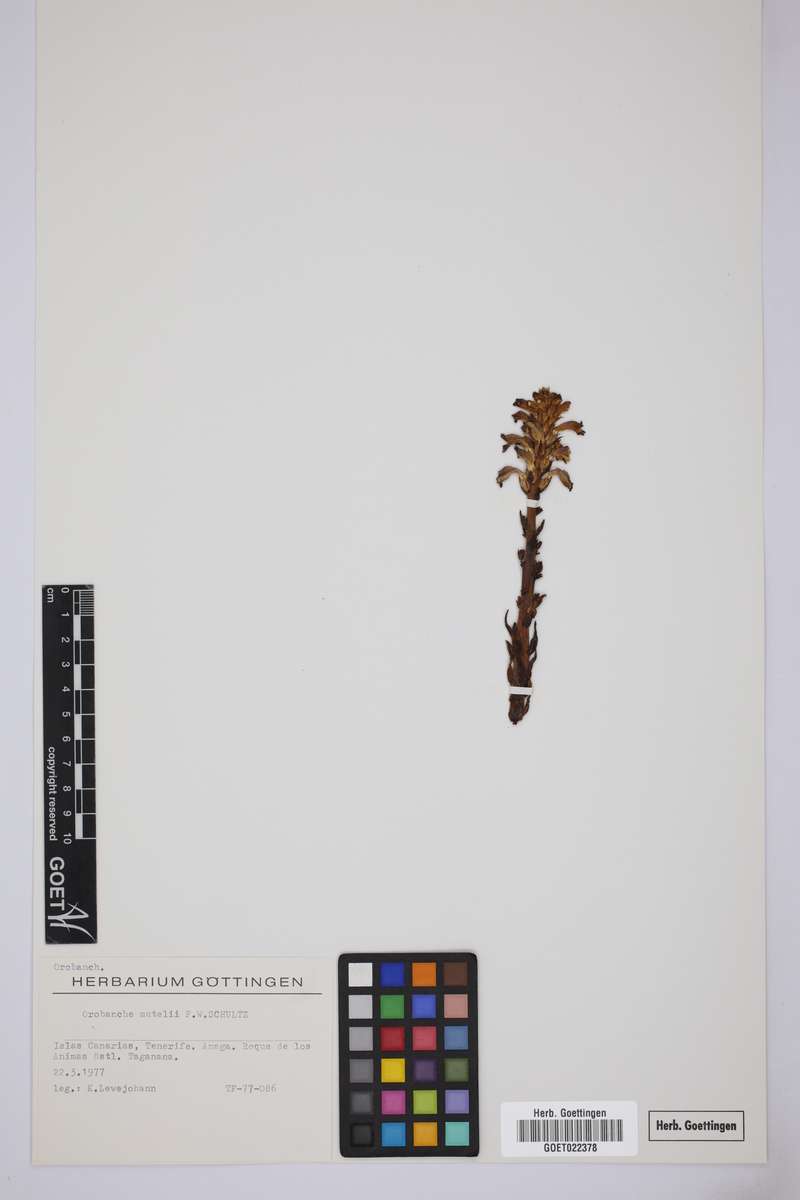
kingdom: Plantae
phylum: Tracheophyta
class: Magnoliopsida
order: Lamiales
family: Orobanchaceae
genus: Phelipanche
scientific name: Phelipanche mutelii
